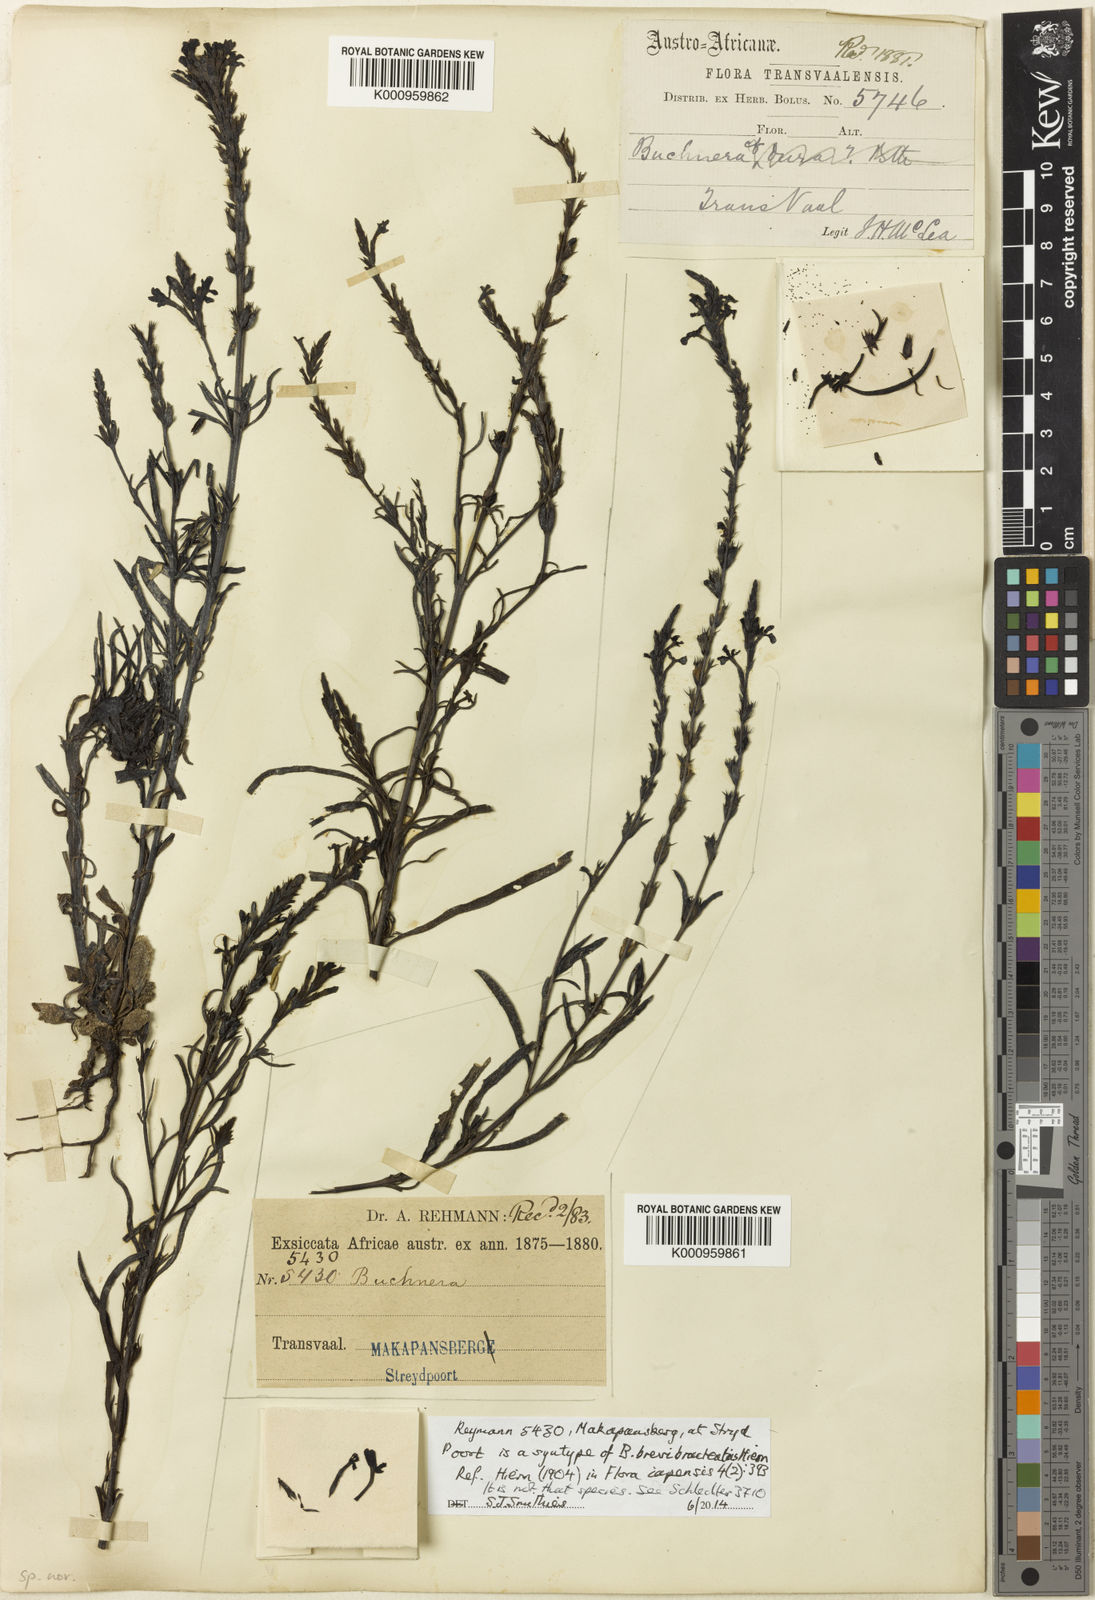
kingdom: Plantae
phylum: Tracheophyta
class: Magnoliopsida
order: Lamiales
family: Orobanchaceae
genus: Buchnera
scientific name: Buchnera
